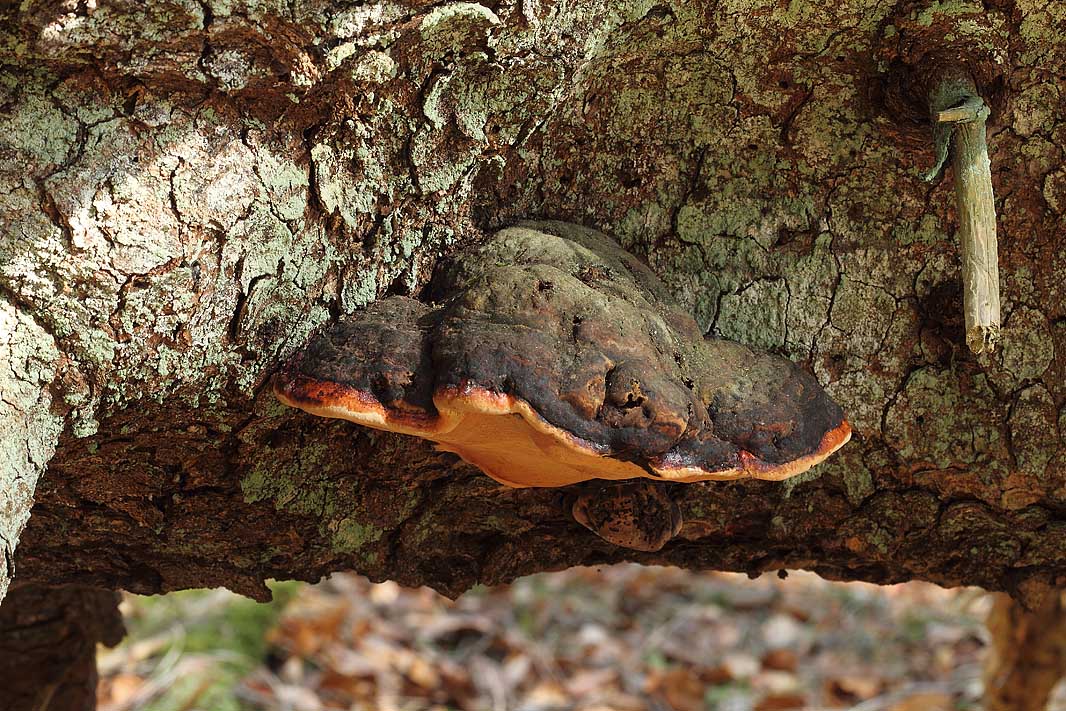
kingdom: Fungi
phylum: Basidiomycota
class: Agaricomycetes
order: Polyporales
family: Fomitopsidaceae
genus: Fomitopsis
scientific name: Fomitopsis pinicola
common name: randbæltet hovporesvamp
